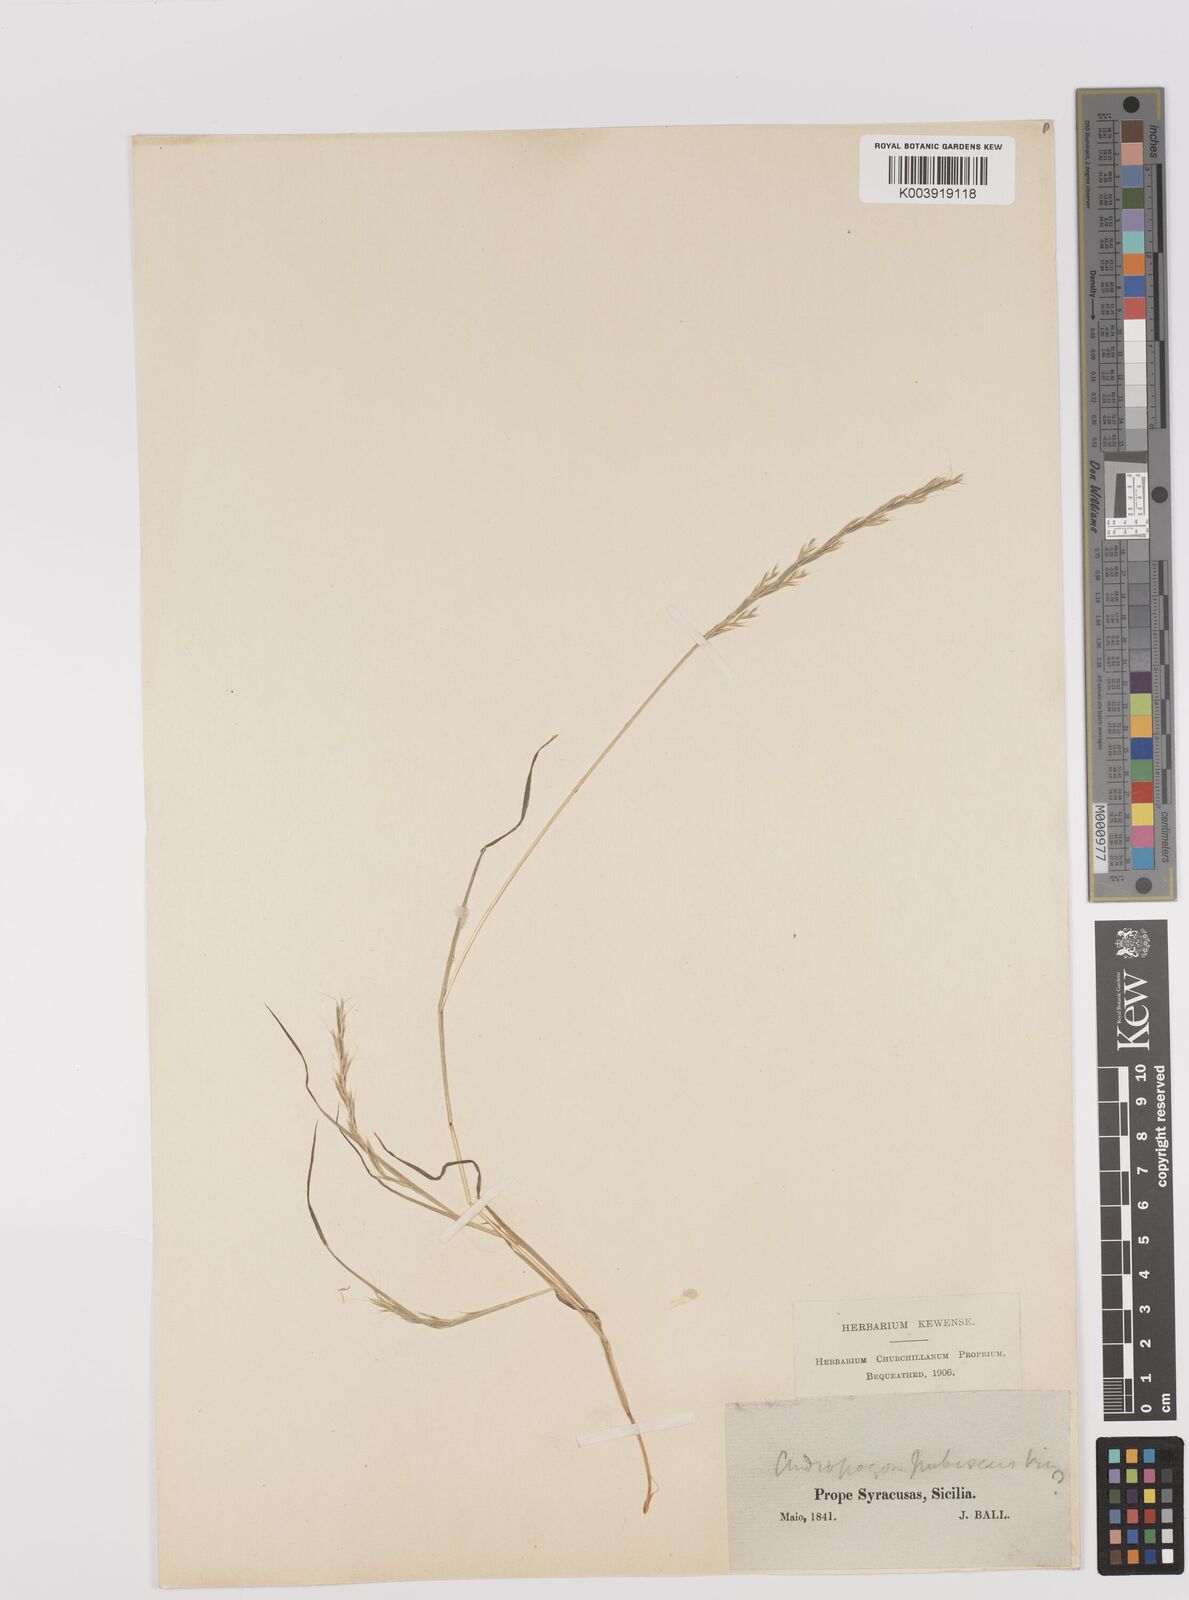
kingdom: Plantae
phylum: Tracheophyta
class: Liliopsida
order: Poales
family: Poaceae
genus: Gaudinia
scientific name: Gaudinia fragilis
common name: French oat-grass
